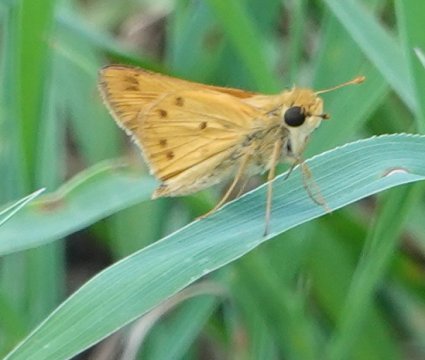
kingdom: Animalia
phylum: Arthropoda
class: Insecta
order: Lepidoptera
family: Hesperiidae
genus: Hylephila
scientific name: Hylephila phyleus
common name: Fiery Skipper
